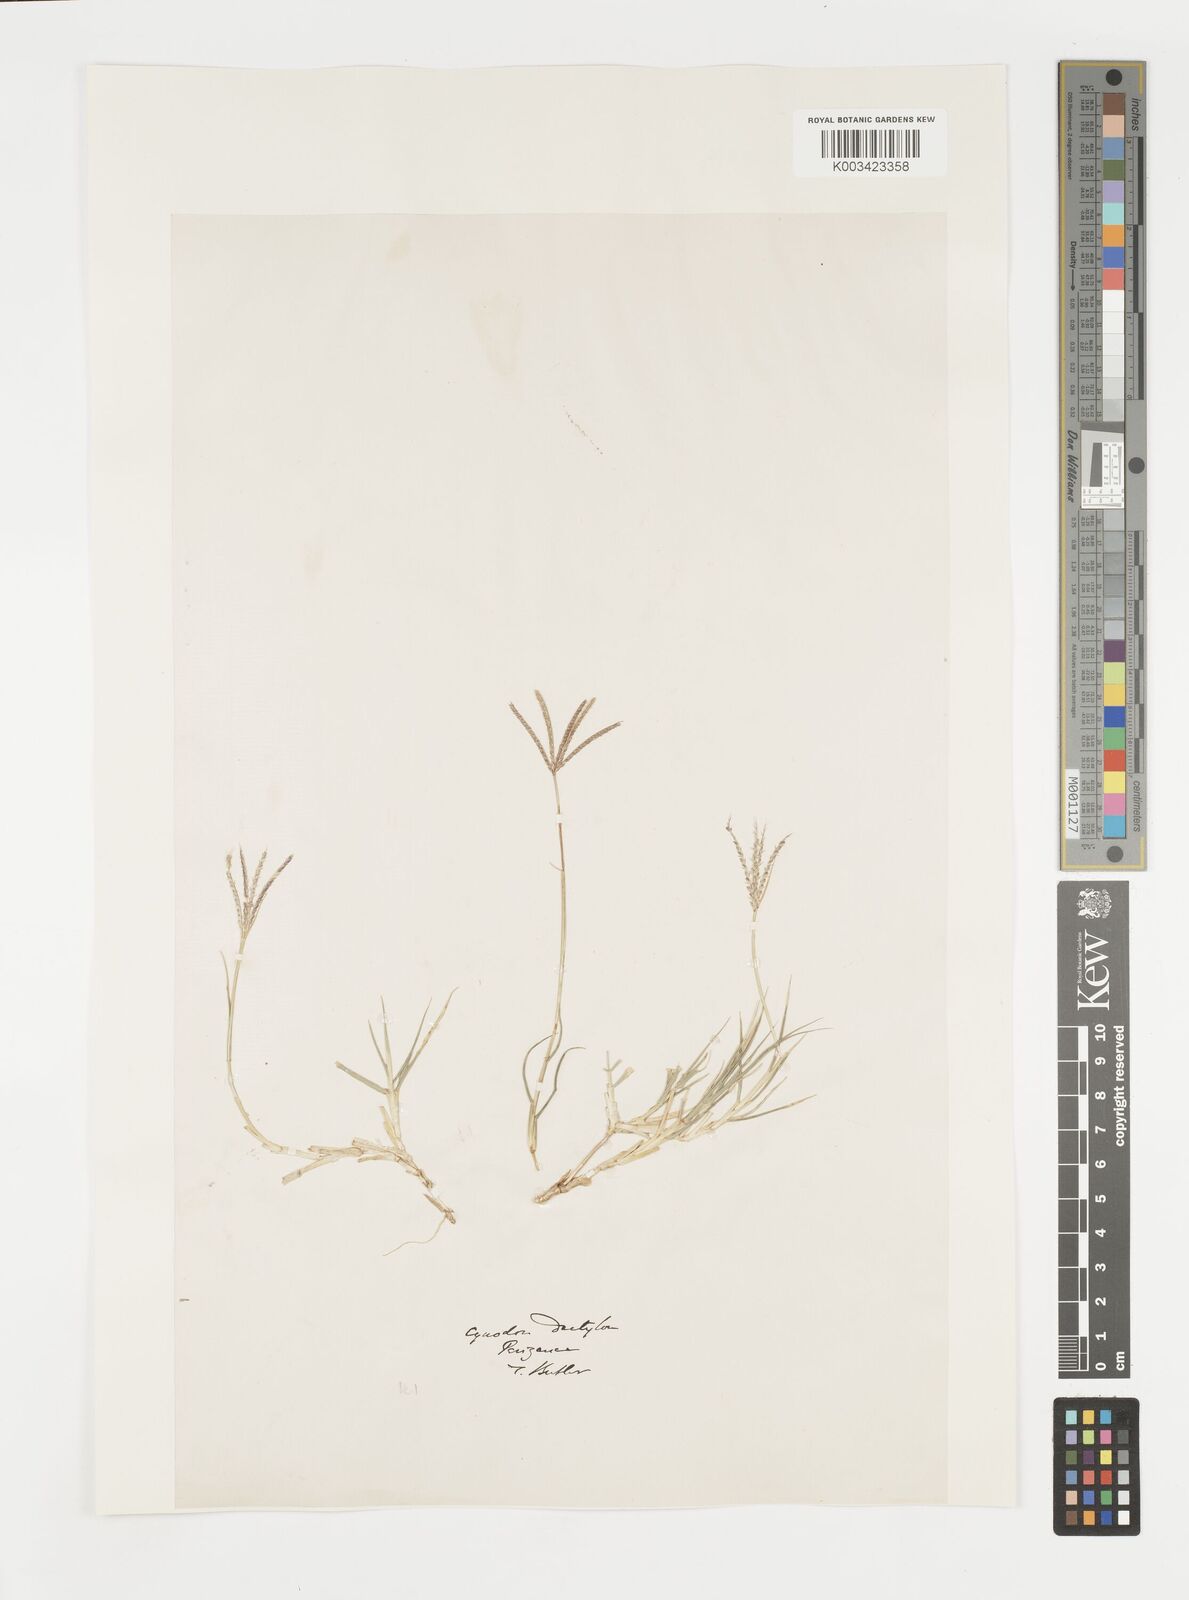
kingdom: Plantae
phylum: Tracheophyta
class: Liliopsida
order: Poales
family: Poaceae
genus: Cynodon
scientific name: Cynodon dactylon
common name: Bermuda grass
